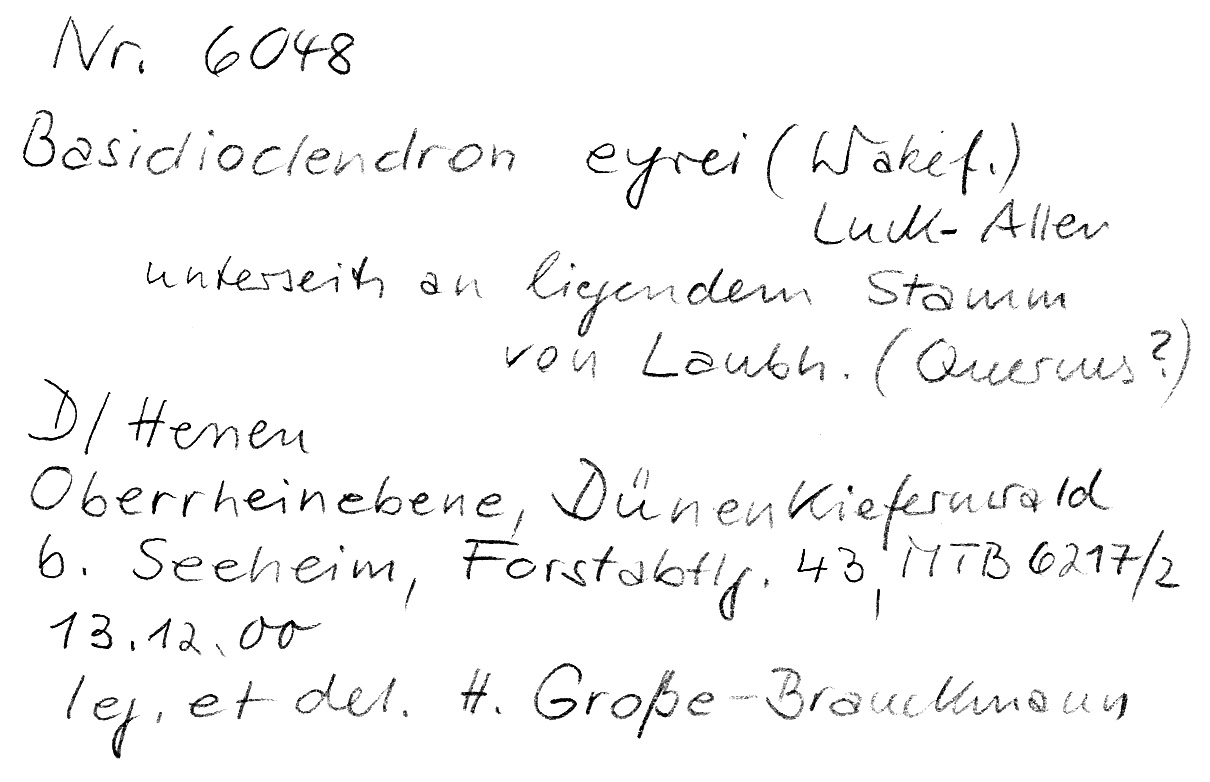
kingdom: Plantae
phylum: Tracheophyta
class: Magnoliopsida
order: Fagales
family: Fagaceae
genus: Quercus
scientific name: Quercus
